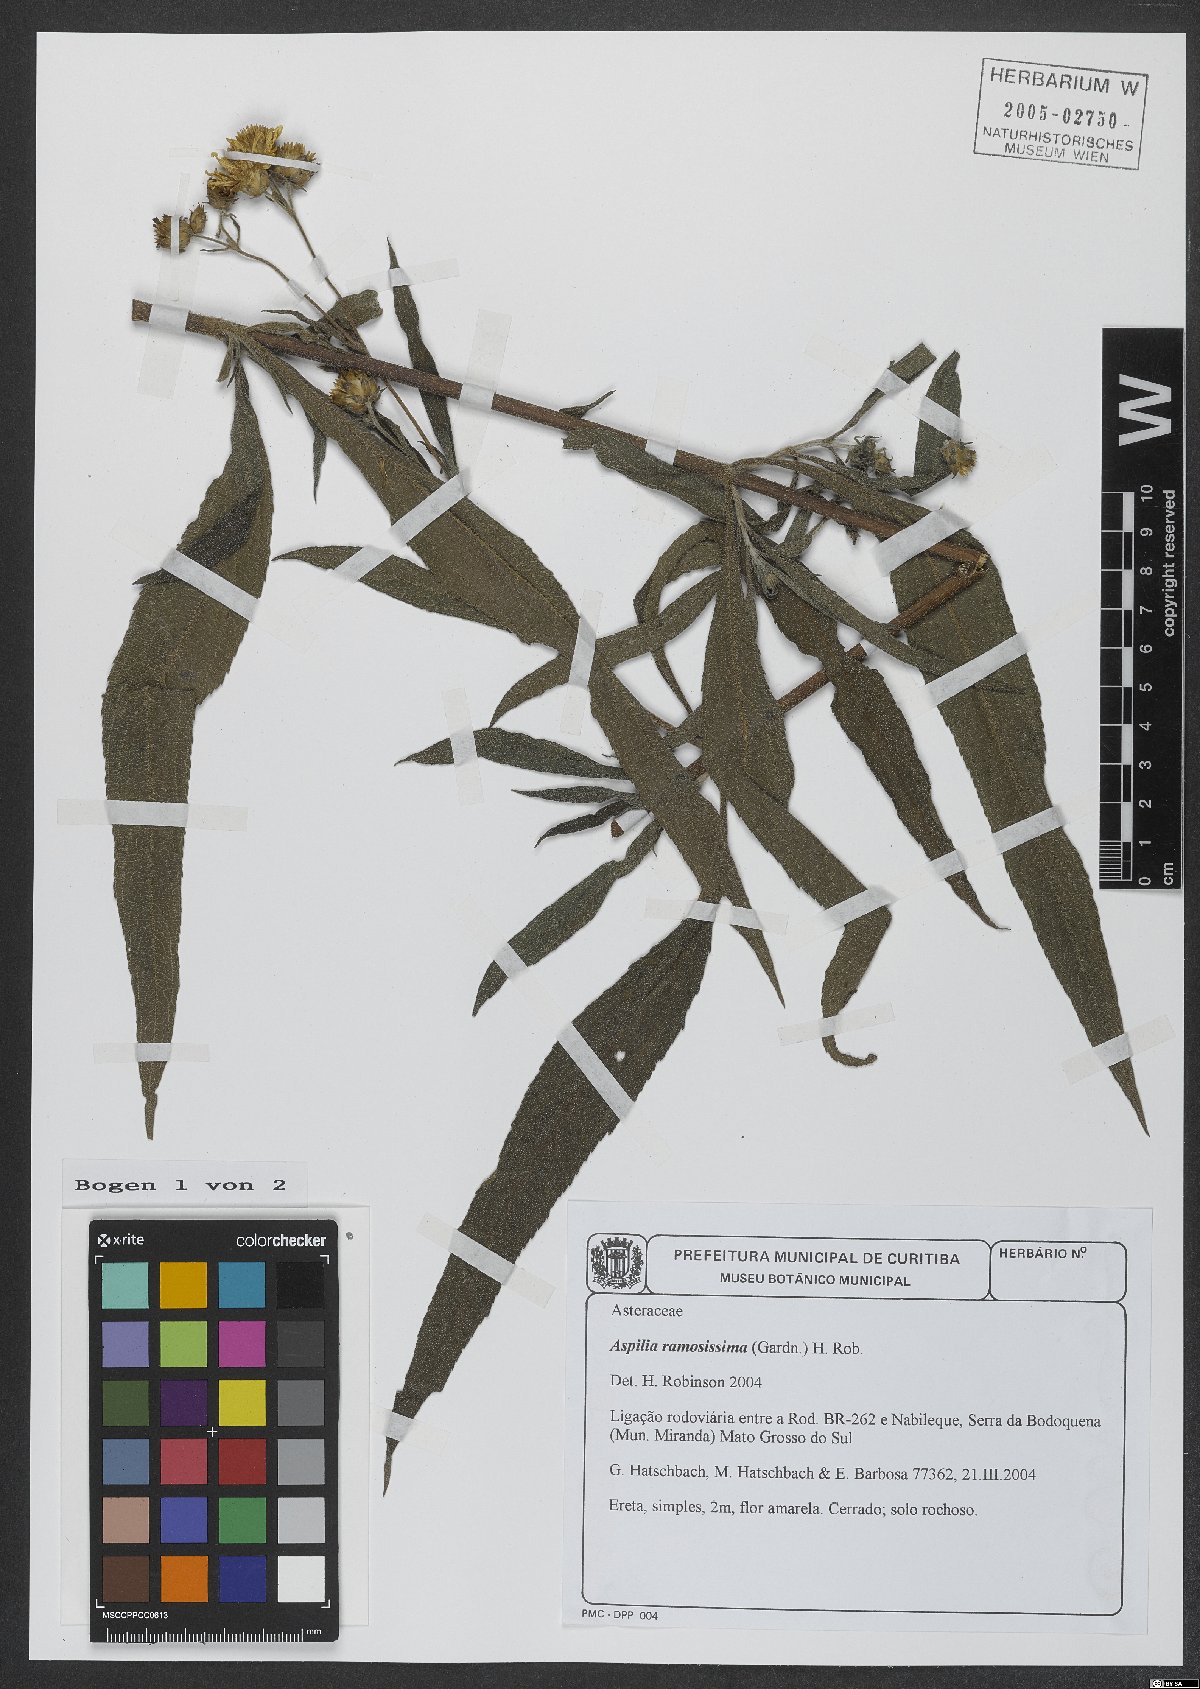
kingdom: Plantae
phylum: Tracheophyta
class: Magnoliopsida
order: Asterales
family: Asteraceae
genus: Aspilia
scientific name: Aspilia ramosissima
